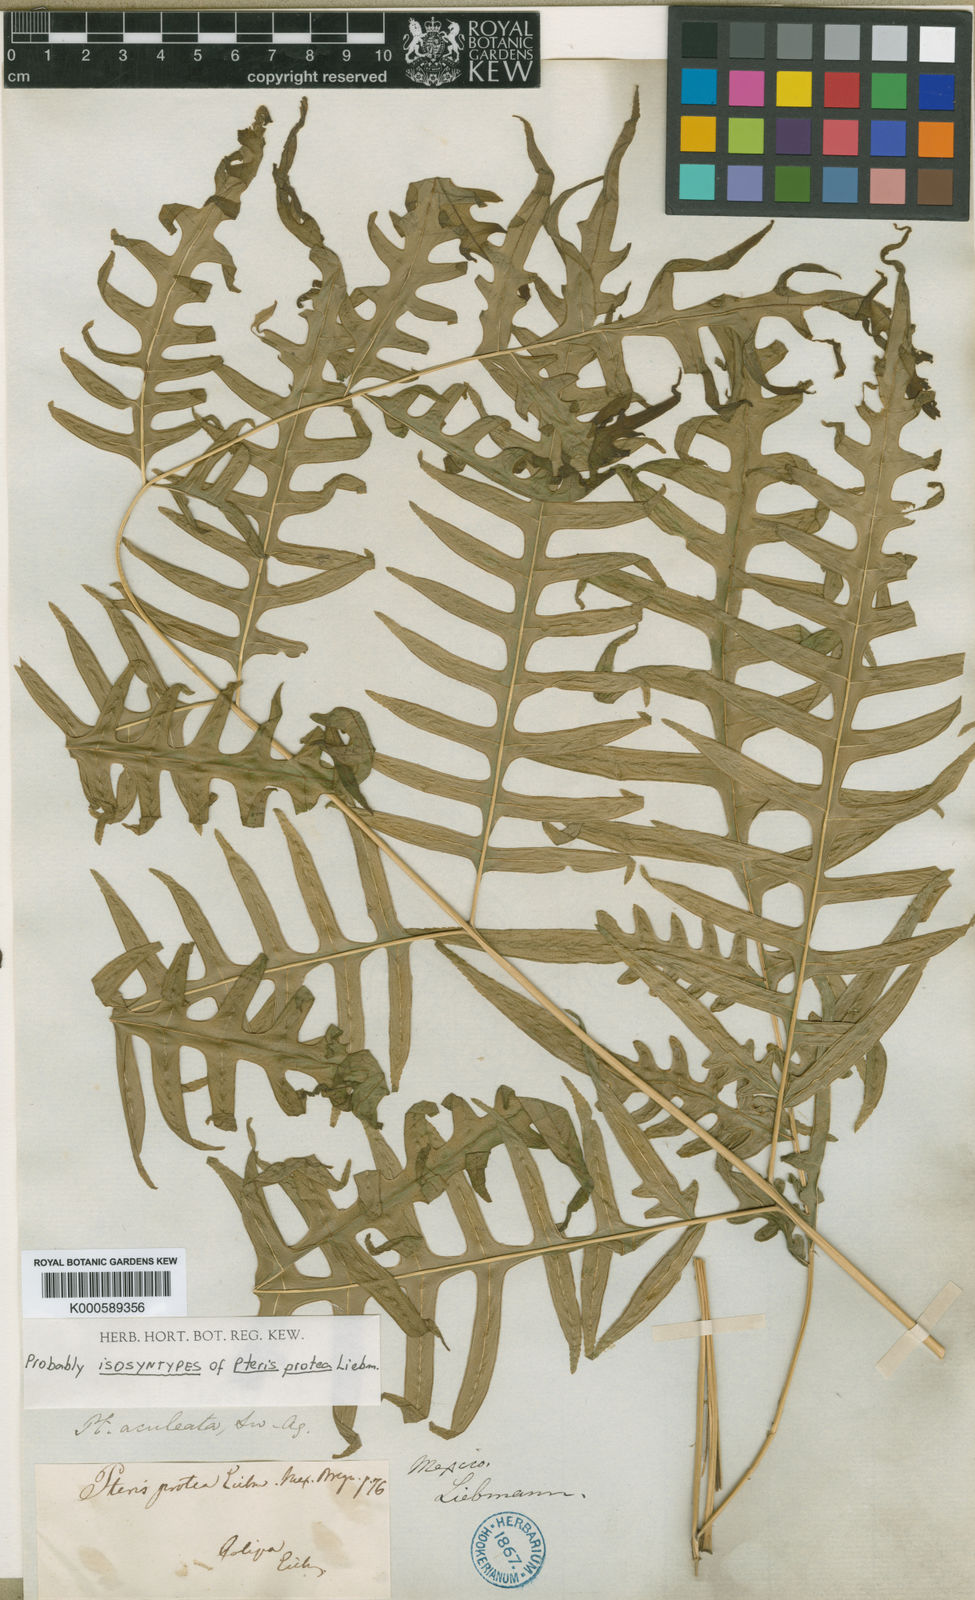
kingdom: Plantae
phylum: Tracheophyta
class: Polypodiopsida
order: Polypodiales
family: Pteridaceae
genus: Pteris
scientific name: Pteris altissima
